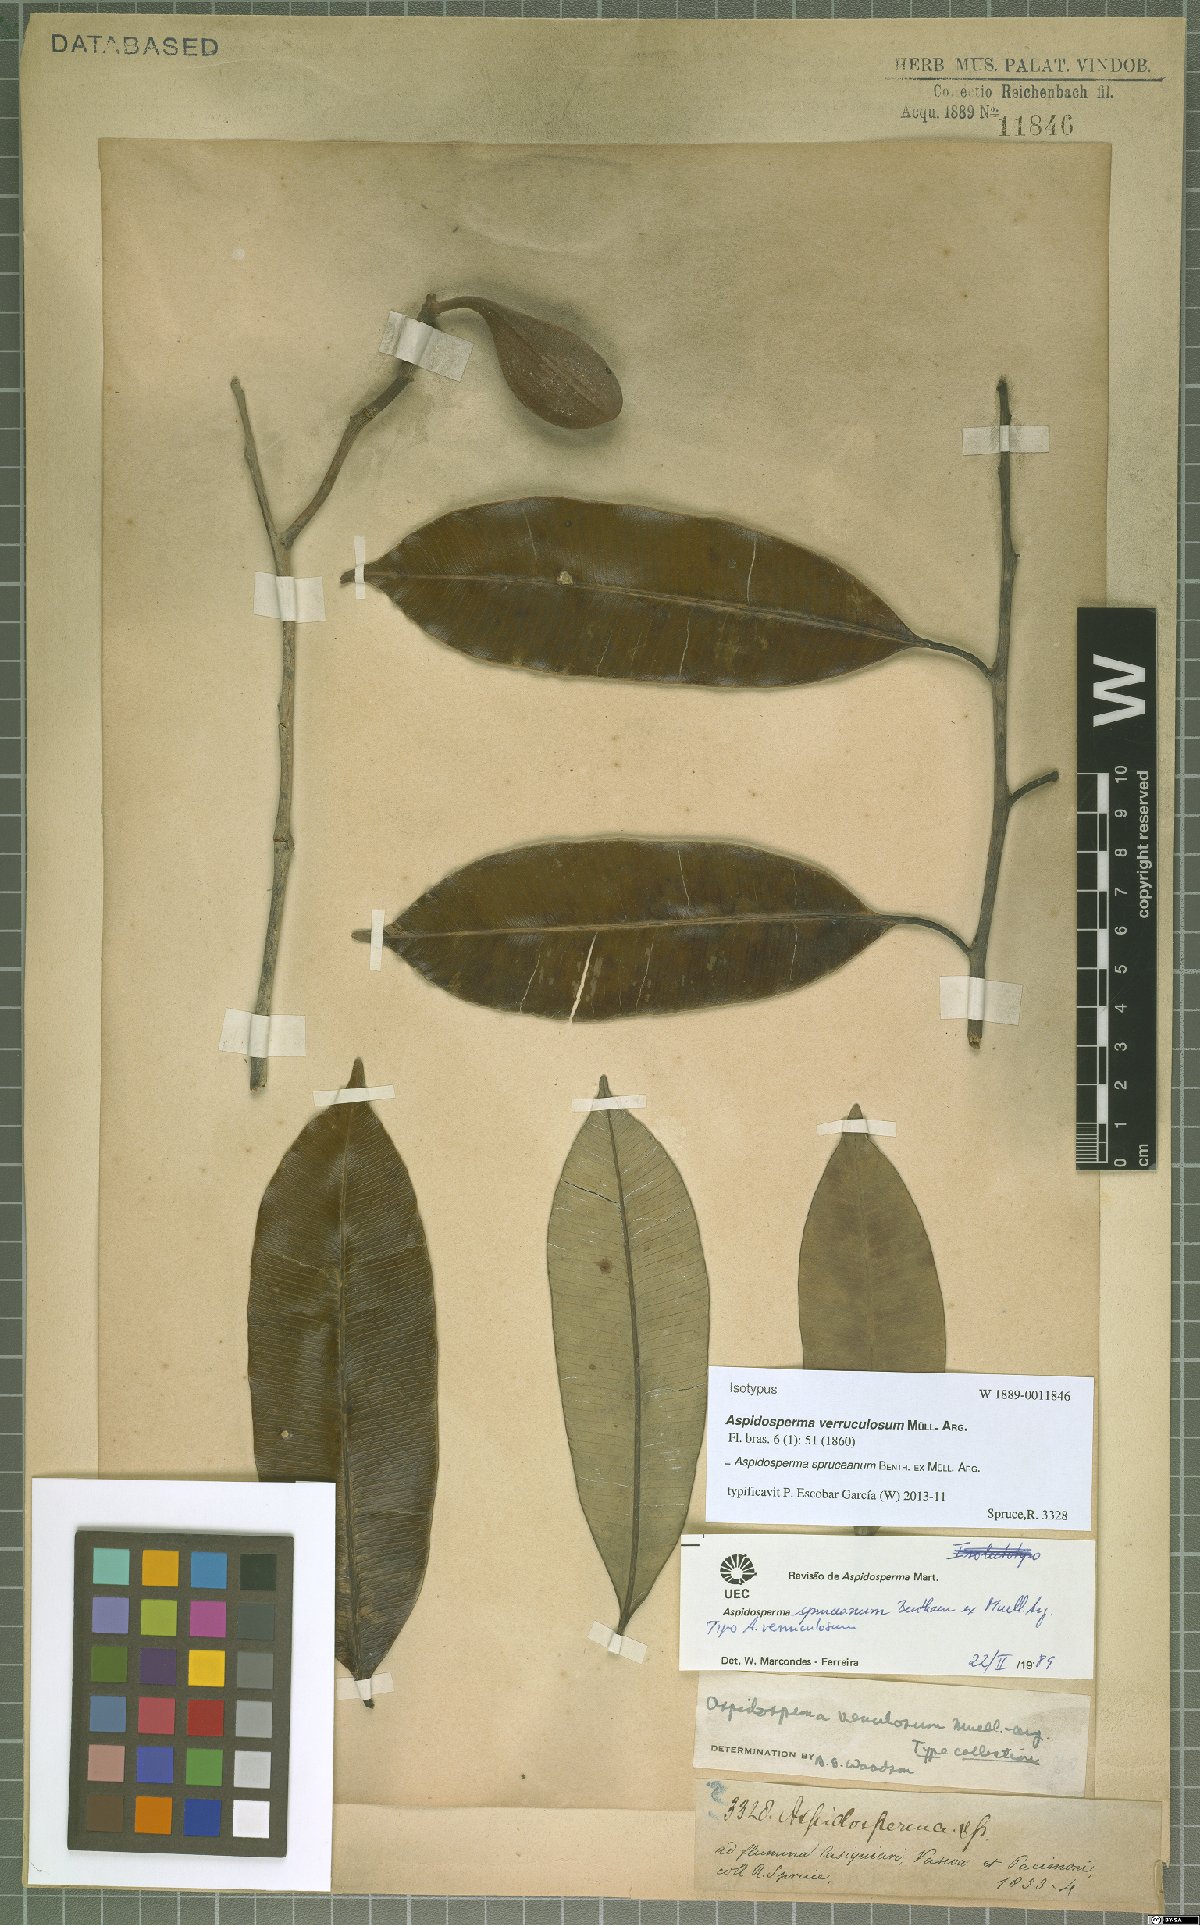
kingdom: Plantae
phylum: Tracheophyta
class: Magnoliopsida
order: Gentianales
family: Apocynaceae
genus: Aspidosperma
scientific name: Aspidosperma spruceanum
